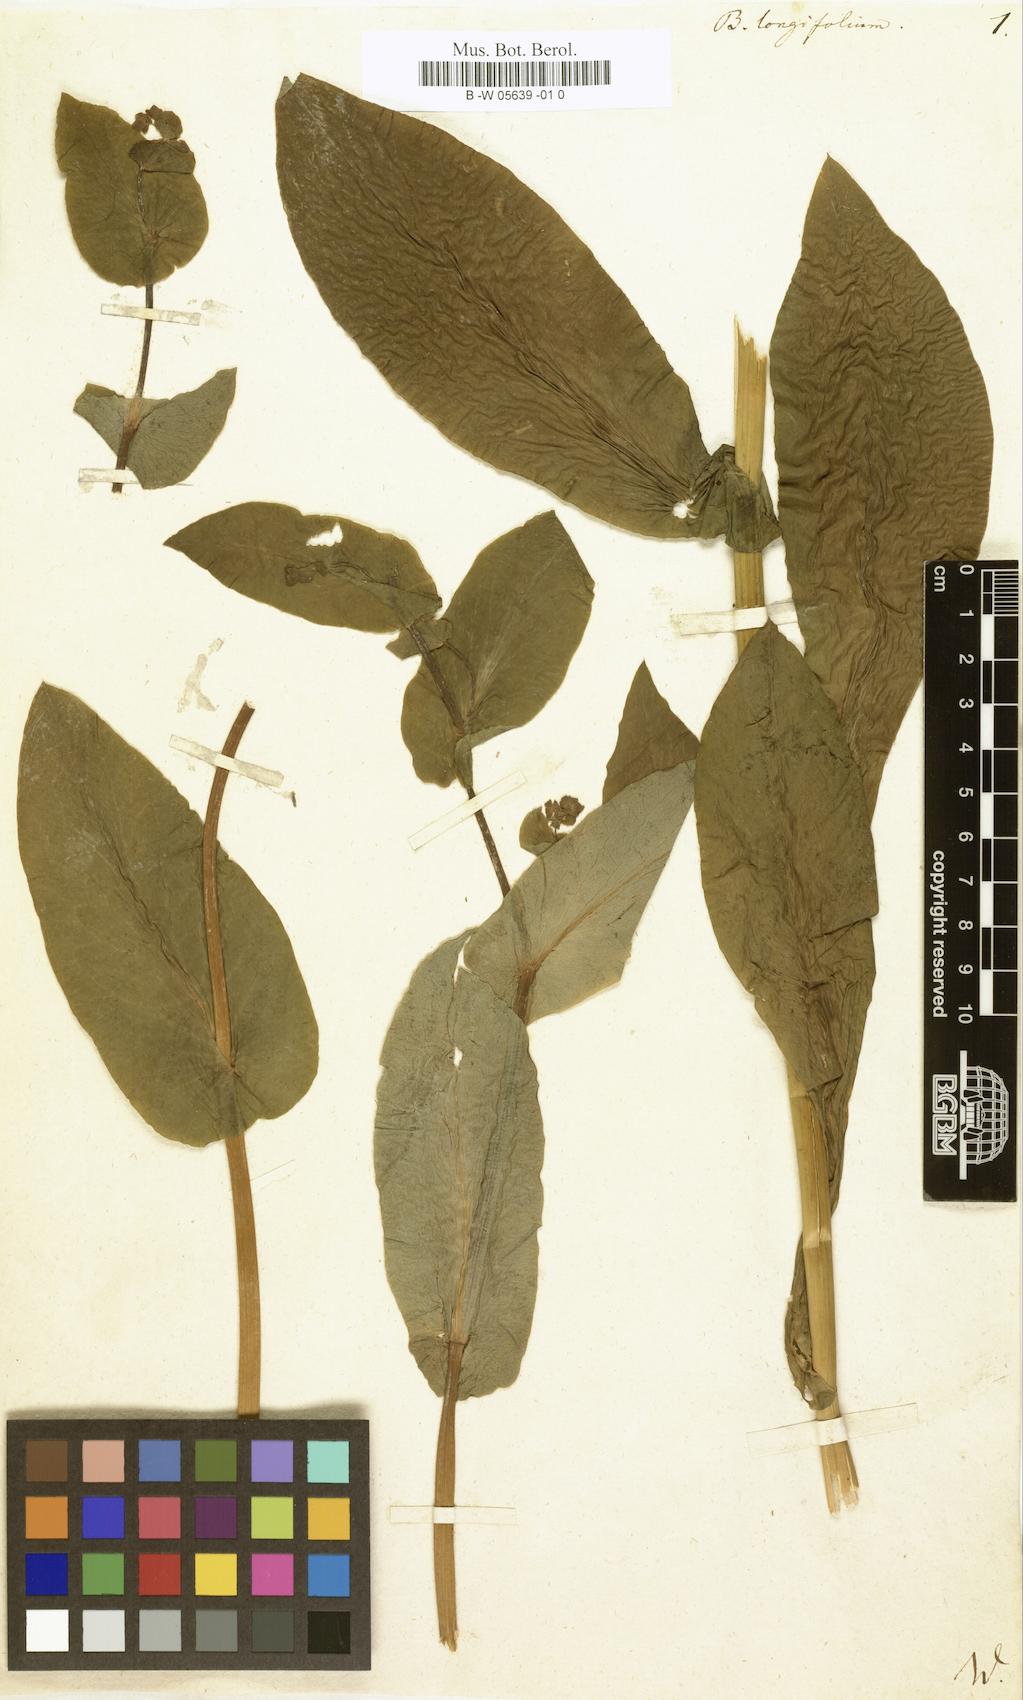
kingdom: Plantae
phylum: Tracheophyta
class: Magnoliopsida
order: Apiales
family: Apiaceae
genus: Bupleurum
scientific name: Bupleurum longifolium
